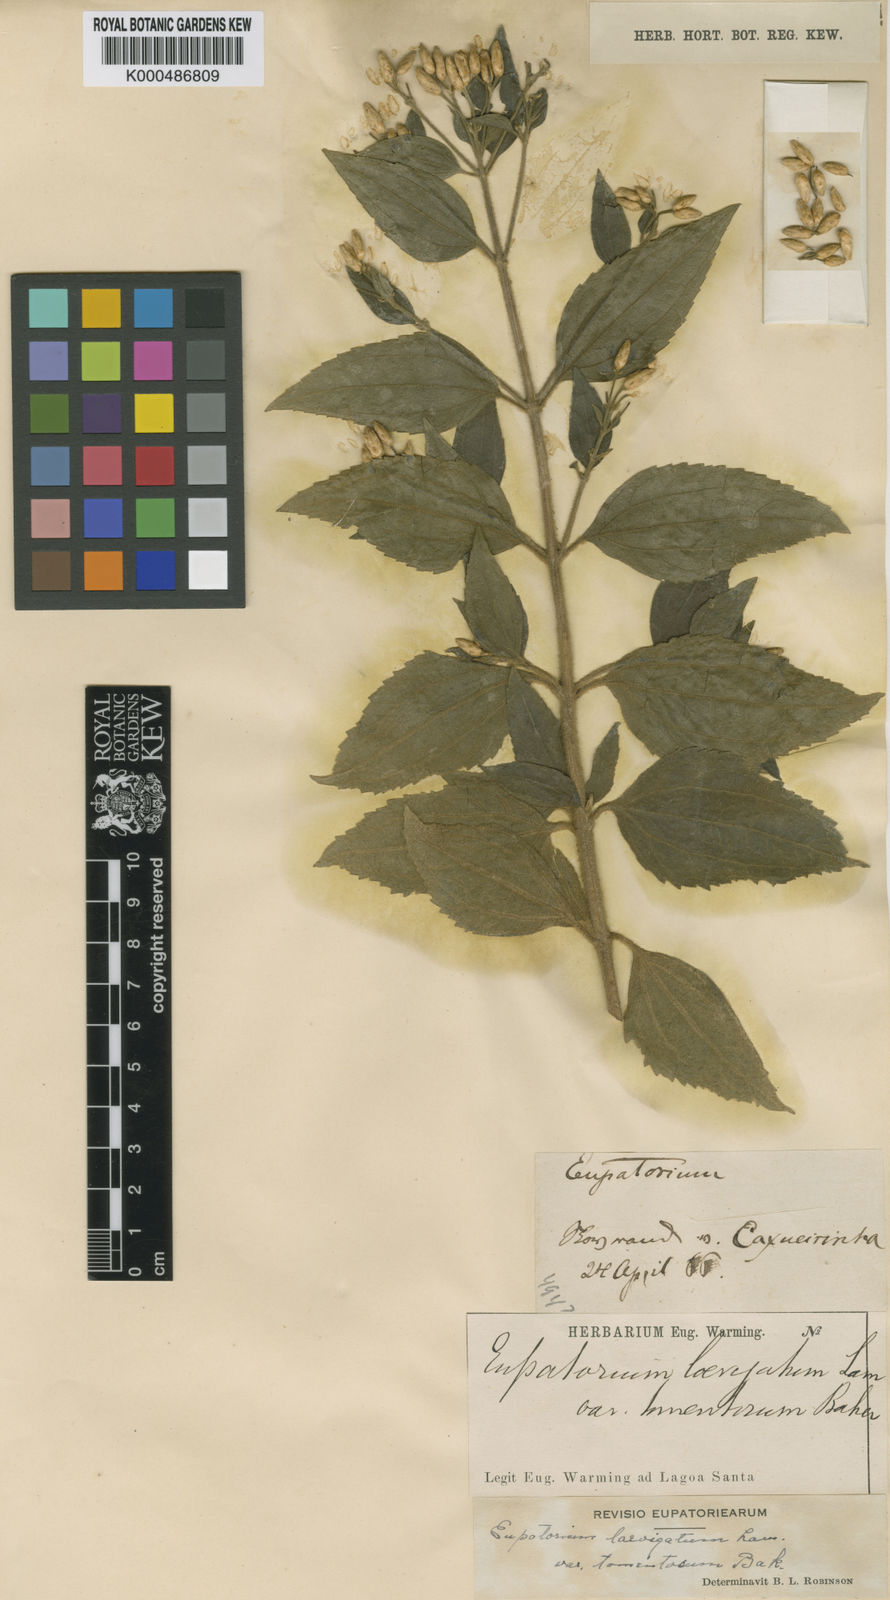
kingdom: Plantae
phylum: Tracheophyta
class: Magnoliopsida
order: Asterales
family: Asteraceae
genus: Chromolaena
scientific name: Chromolaena laevigata
